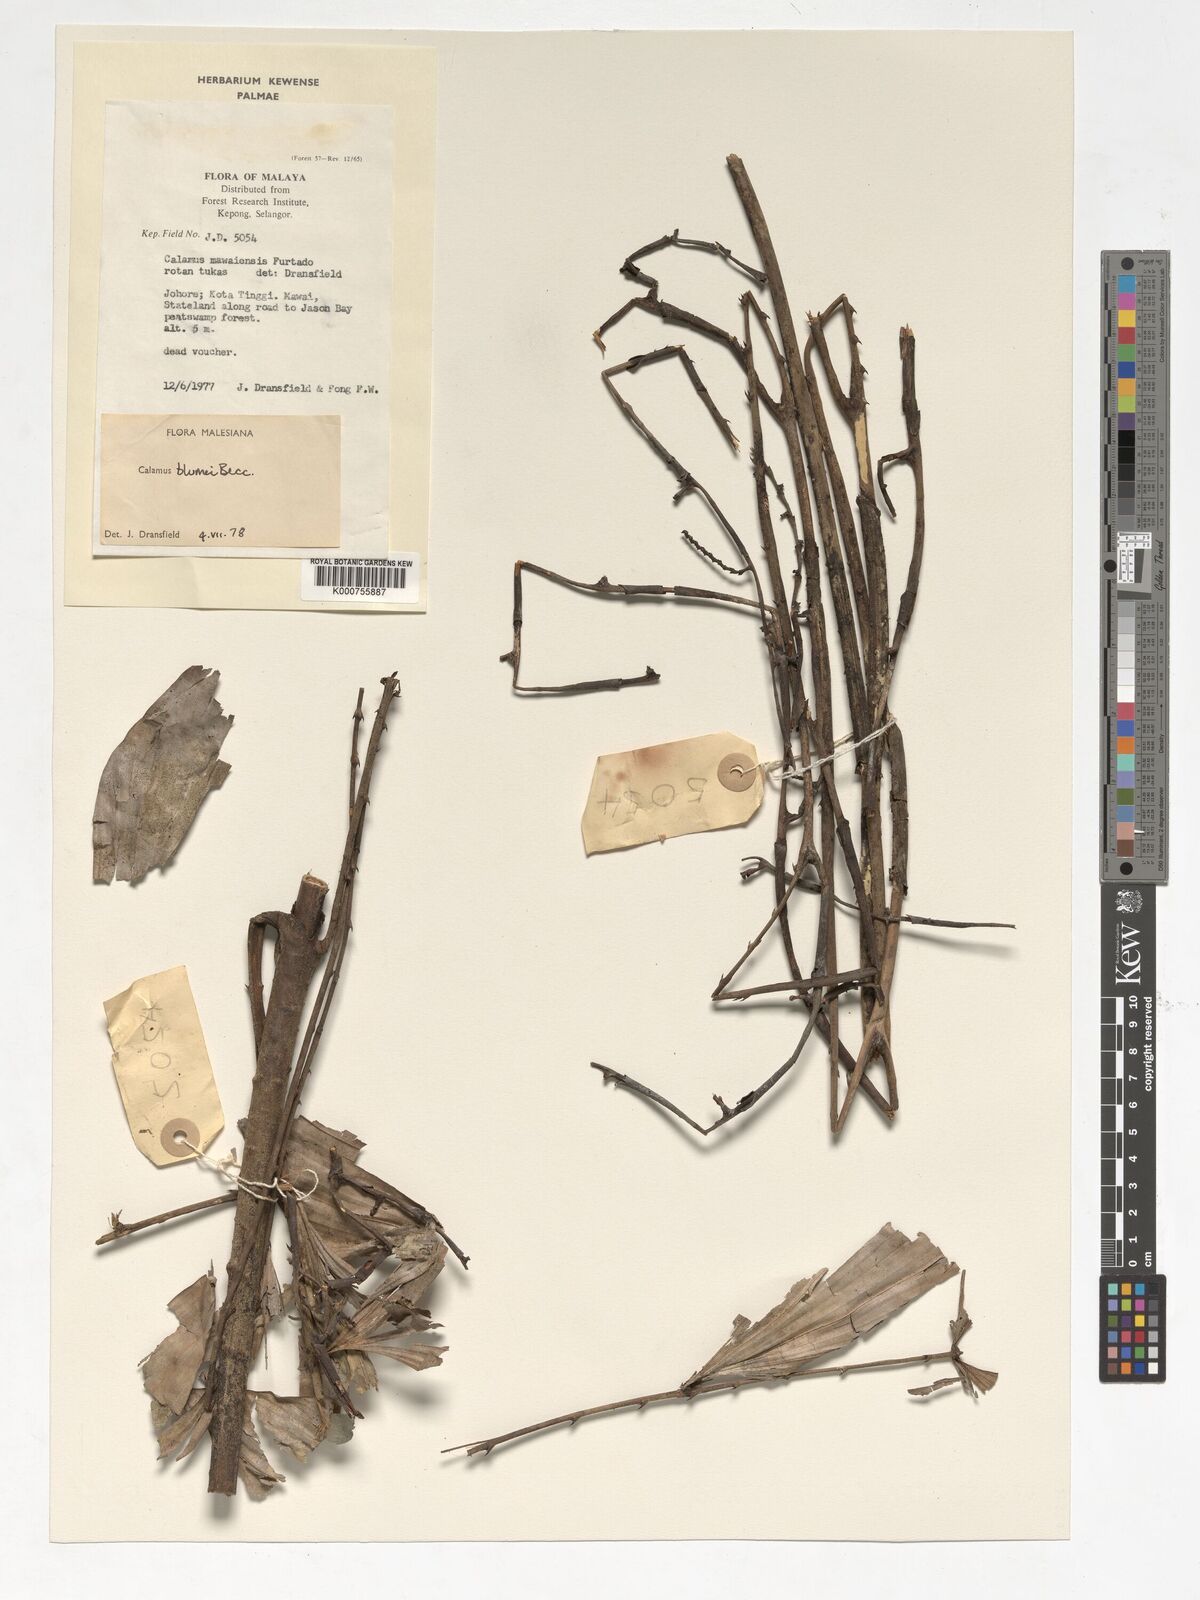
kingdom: Plantae
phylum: Tracheophyta
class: Liliopsida
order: Arecales
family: Arecaceae
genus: Calamus
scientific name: Calamus rhomboideus
